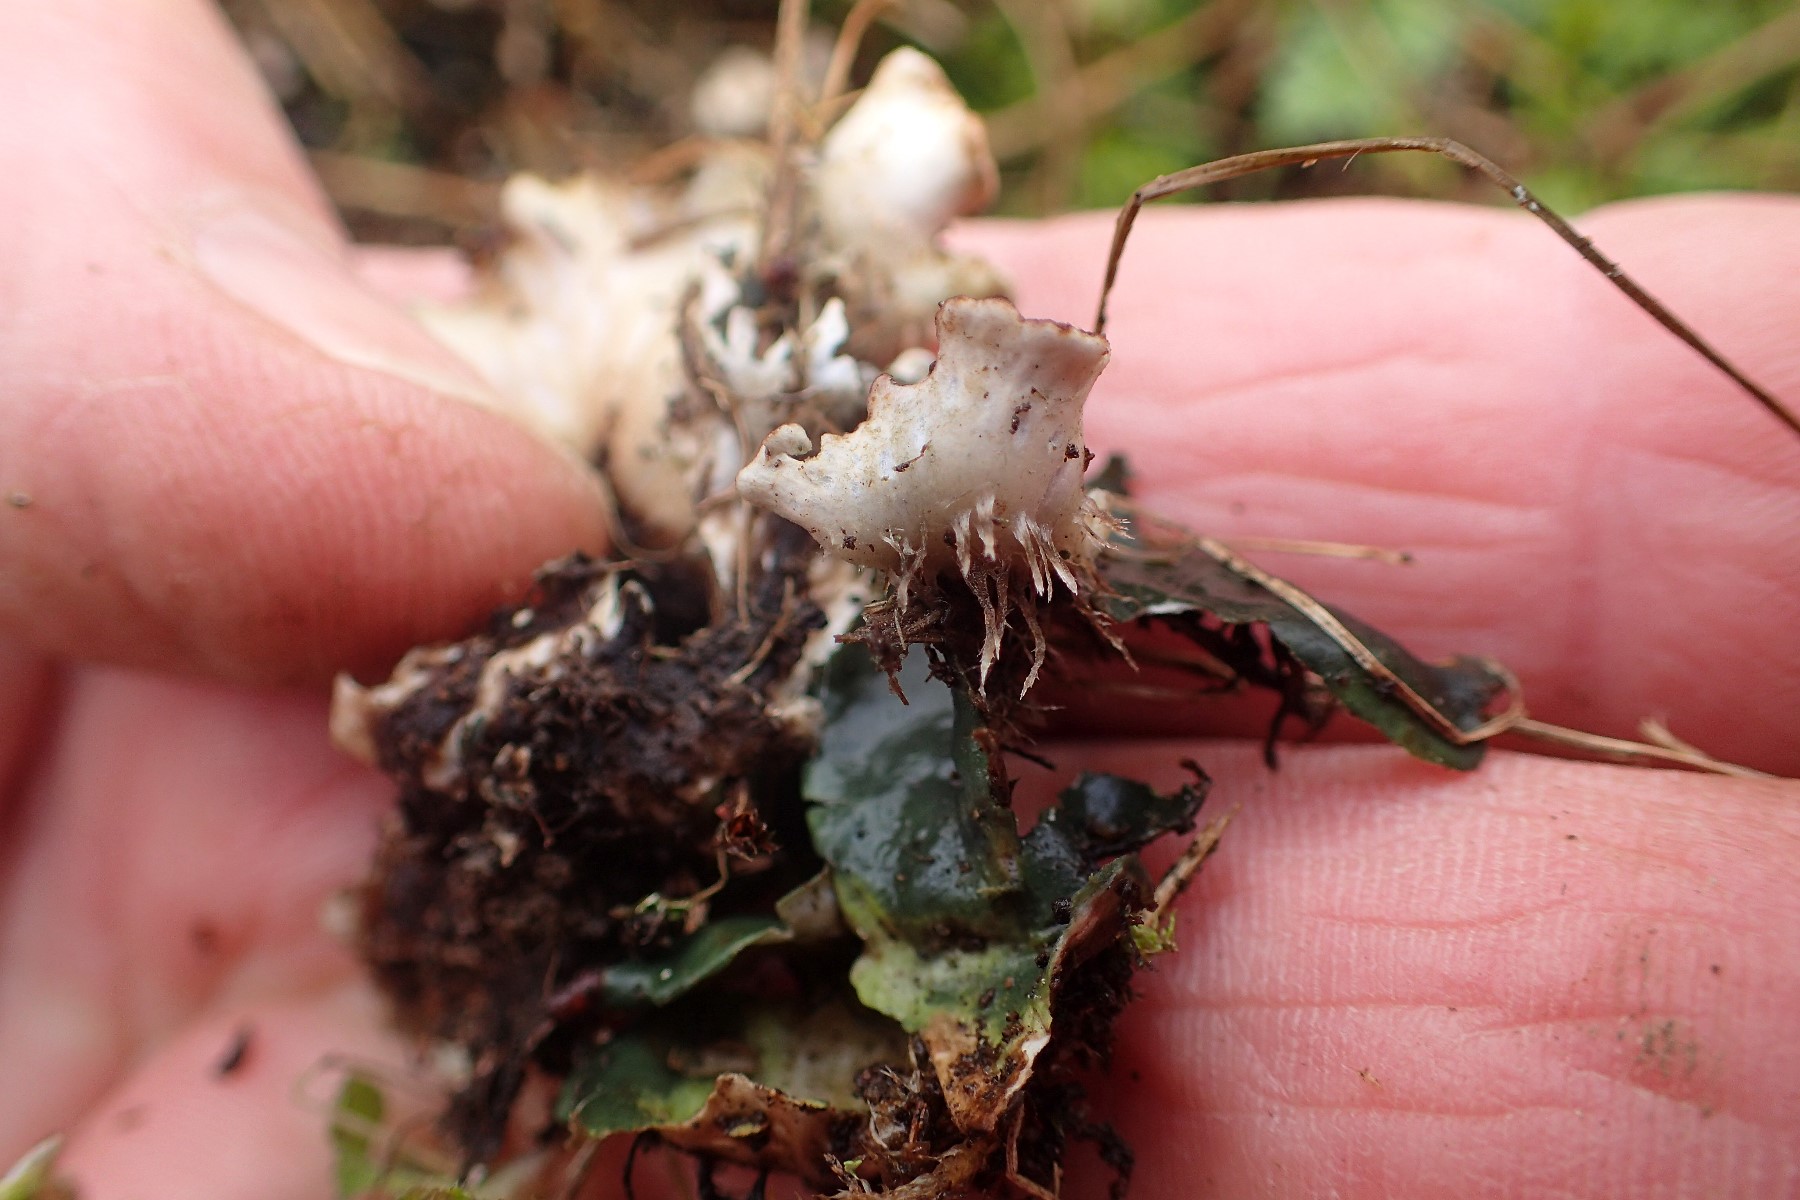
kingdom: Fungi
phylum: Ascomycota
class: Lecanoromycetes
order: Peltigerales
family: Peltigeraceae
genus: Peltigera
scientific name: Peltigera didactyla
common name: liden skjoldlav
